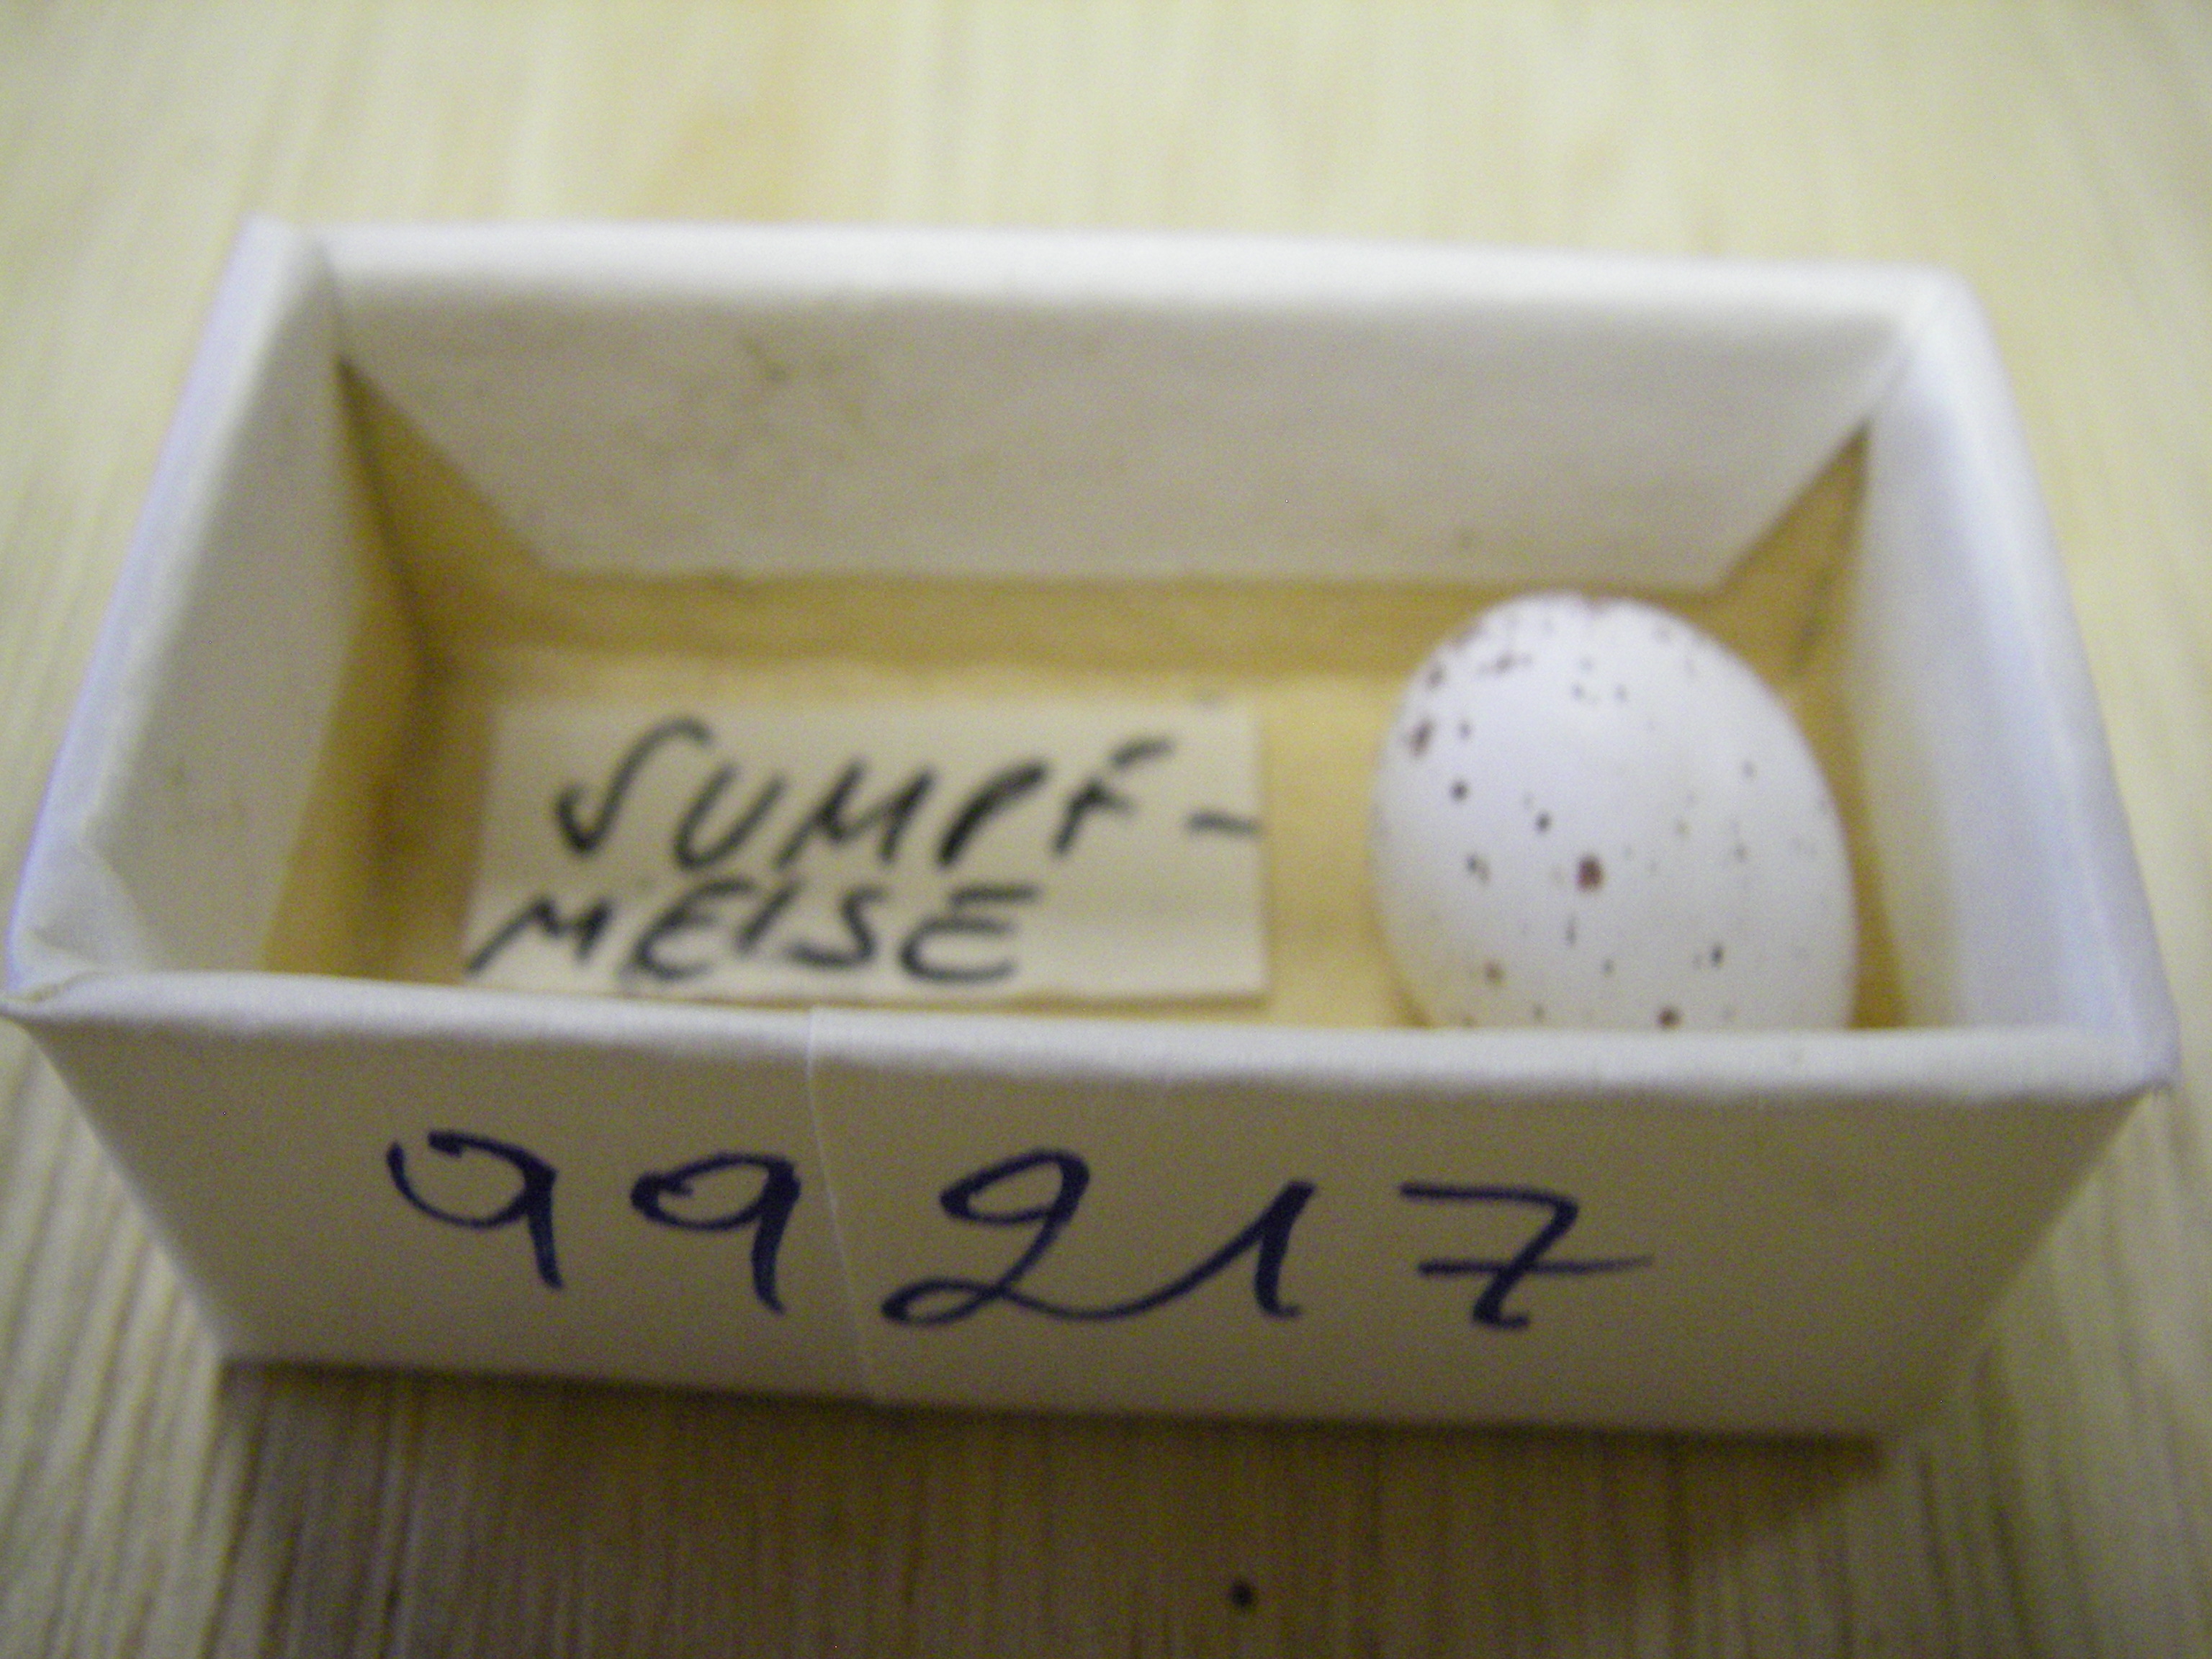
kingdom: Animalia
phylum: Chordata
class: Aves
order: Passeriformes
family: Paridae
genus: Poecile
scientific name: Poecile palustris
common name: Marsh tit
